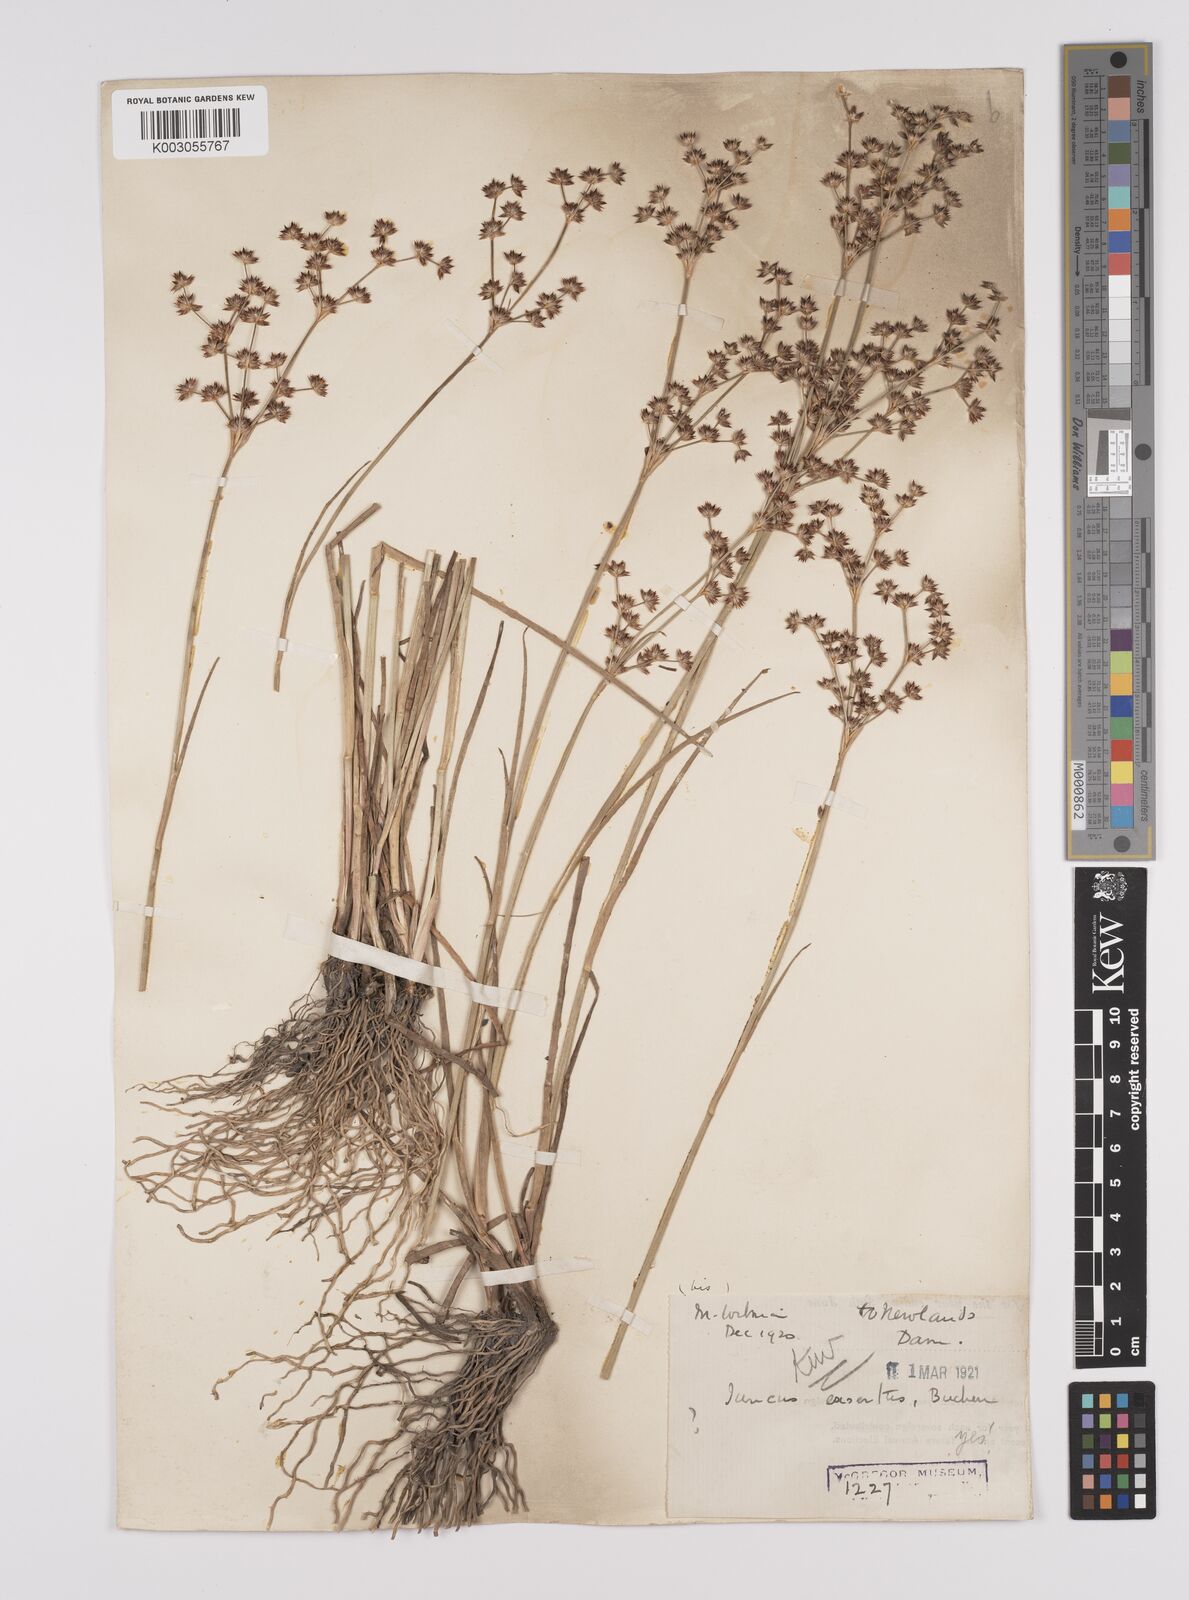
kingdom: Plantae
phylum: Tracheophyta
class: Liliopsida
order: Poales
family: Juncaceae
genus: Juncus
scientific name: Juncus exsertus
